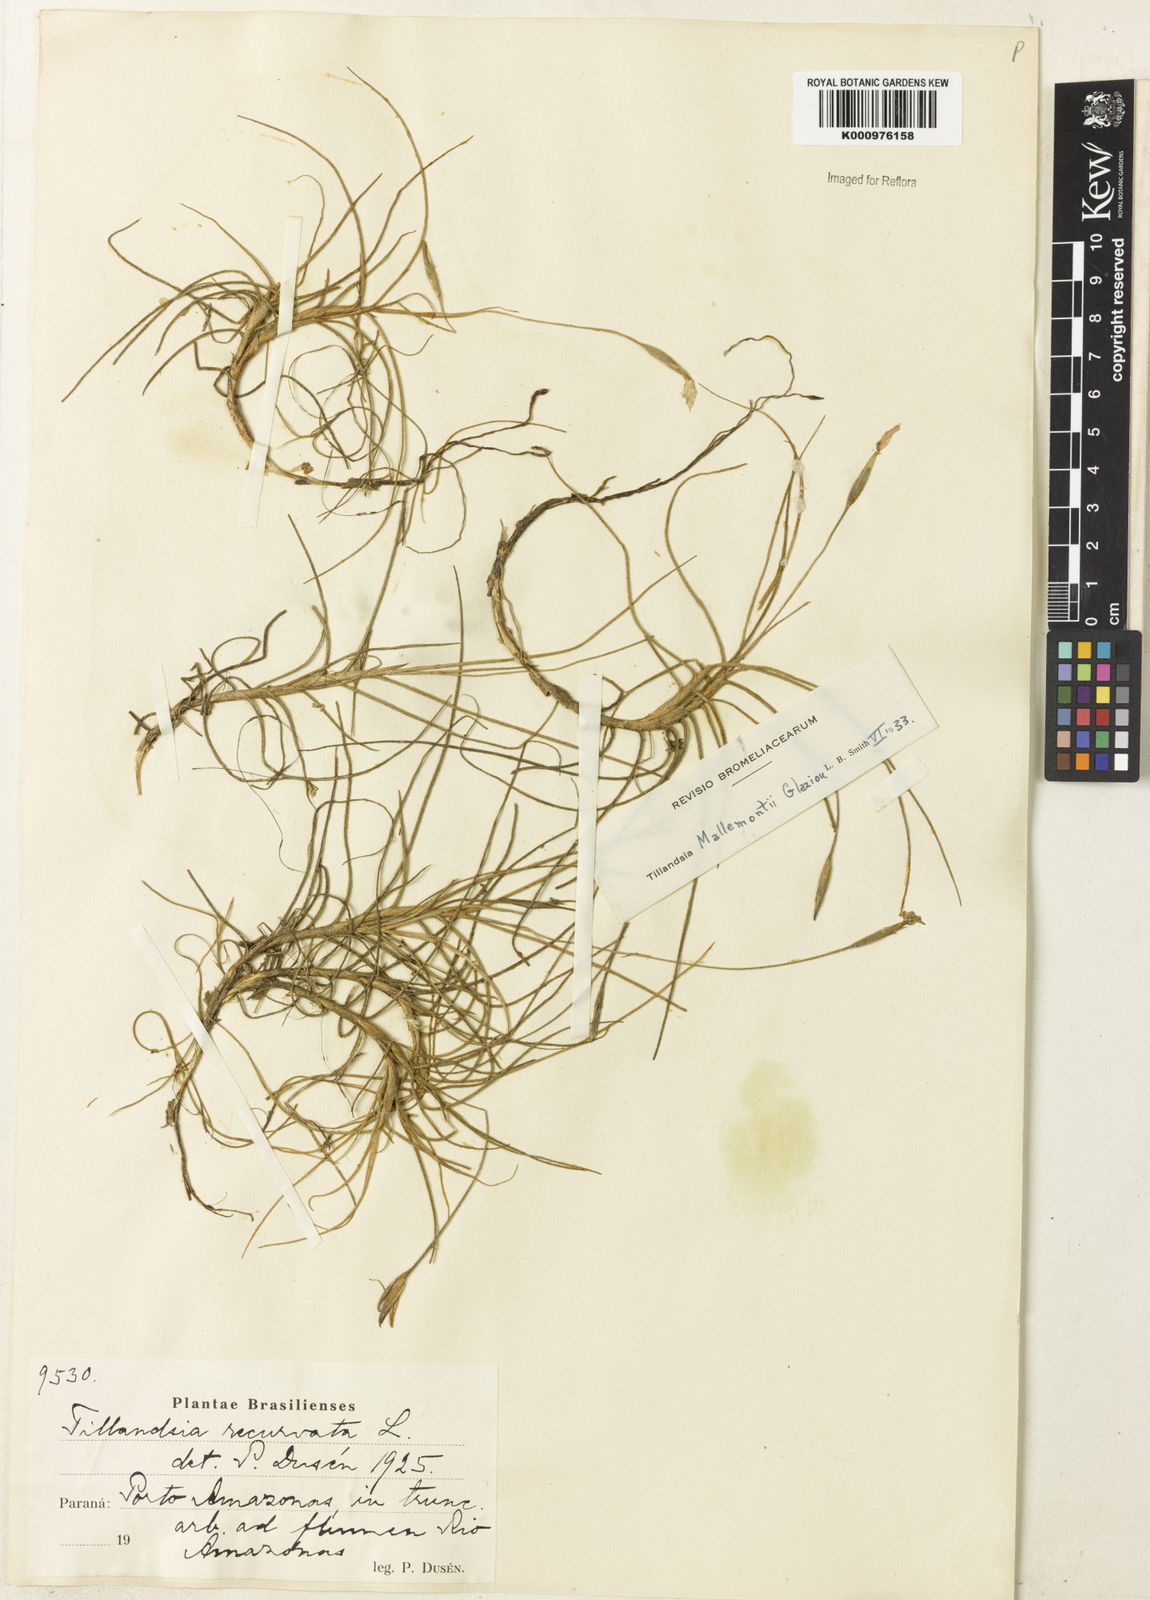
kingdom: Plantae
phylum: Tracheophyta
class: Liliopsida
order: Poales
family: Bromeliaceae
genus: Tillandsia
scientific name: Tillandsia mallemontii
